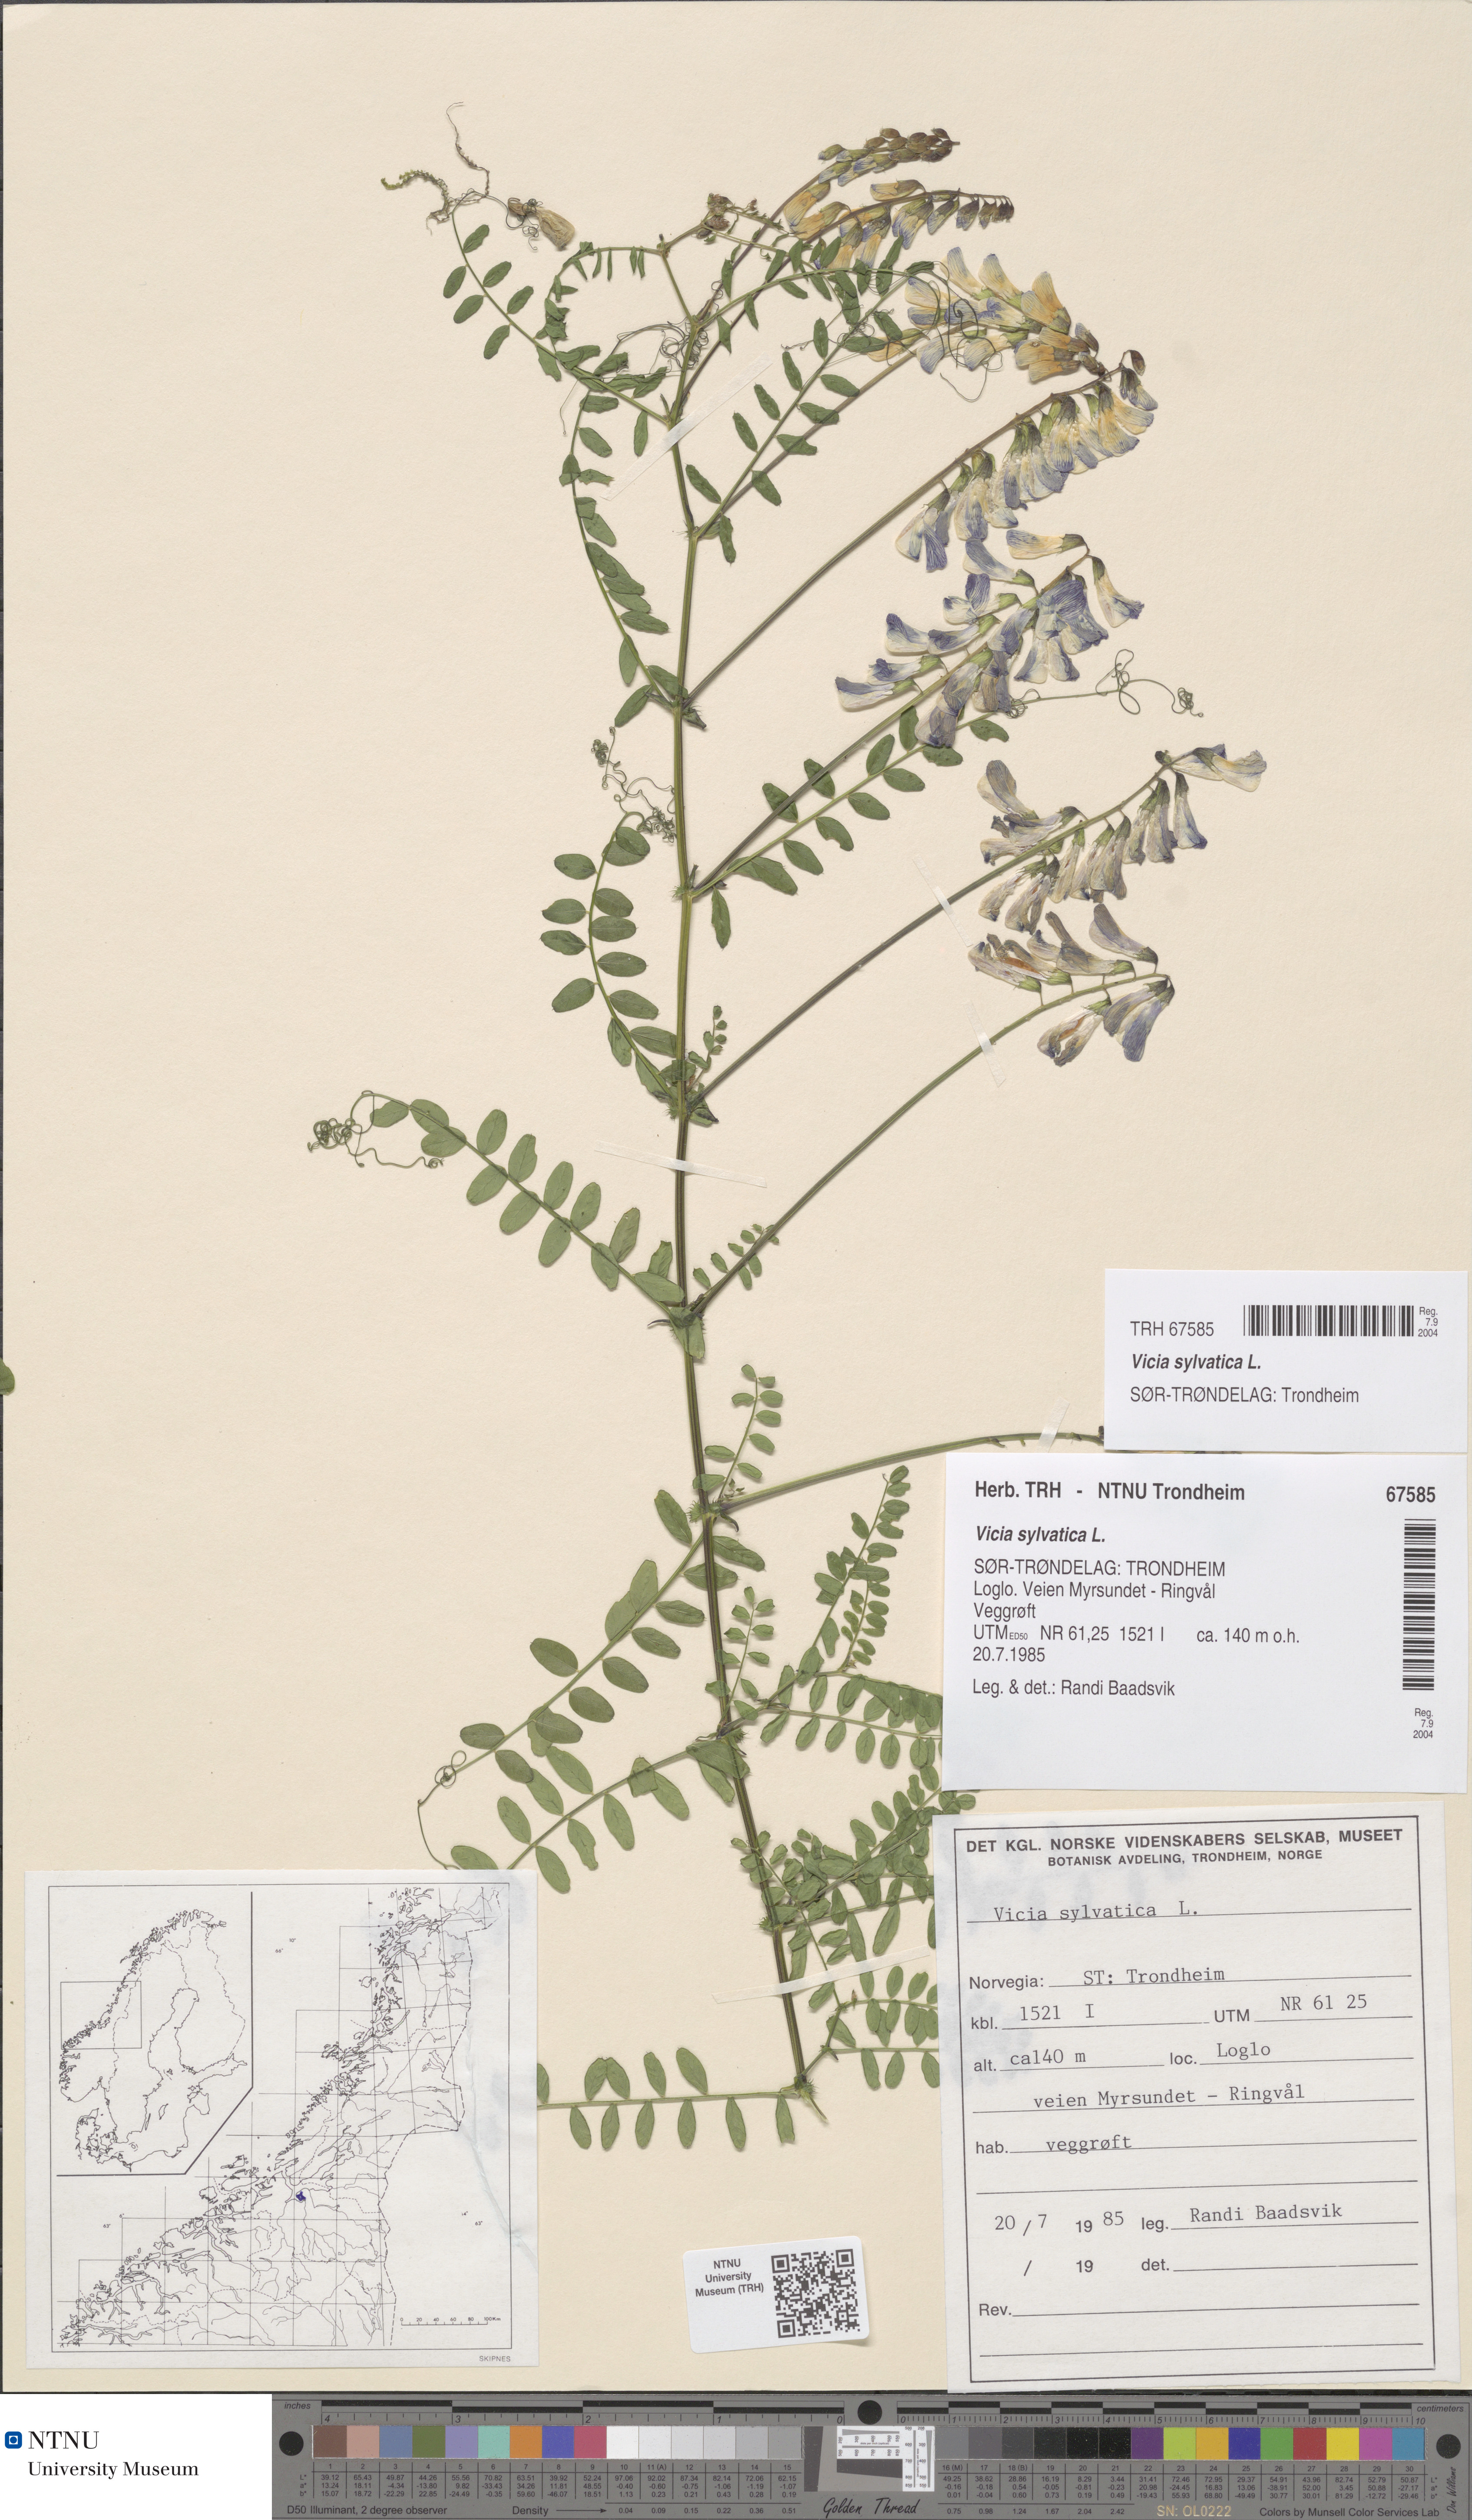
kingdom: Plantae
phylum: Tracheophyta
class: Magnoliopsida
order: Fabales
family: Fabaceae
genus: Vicia
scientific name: Vicia sylvatica
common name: Wood vetch
